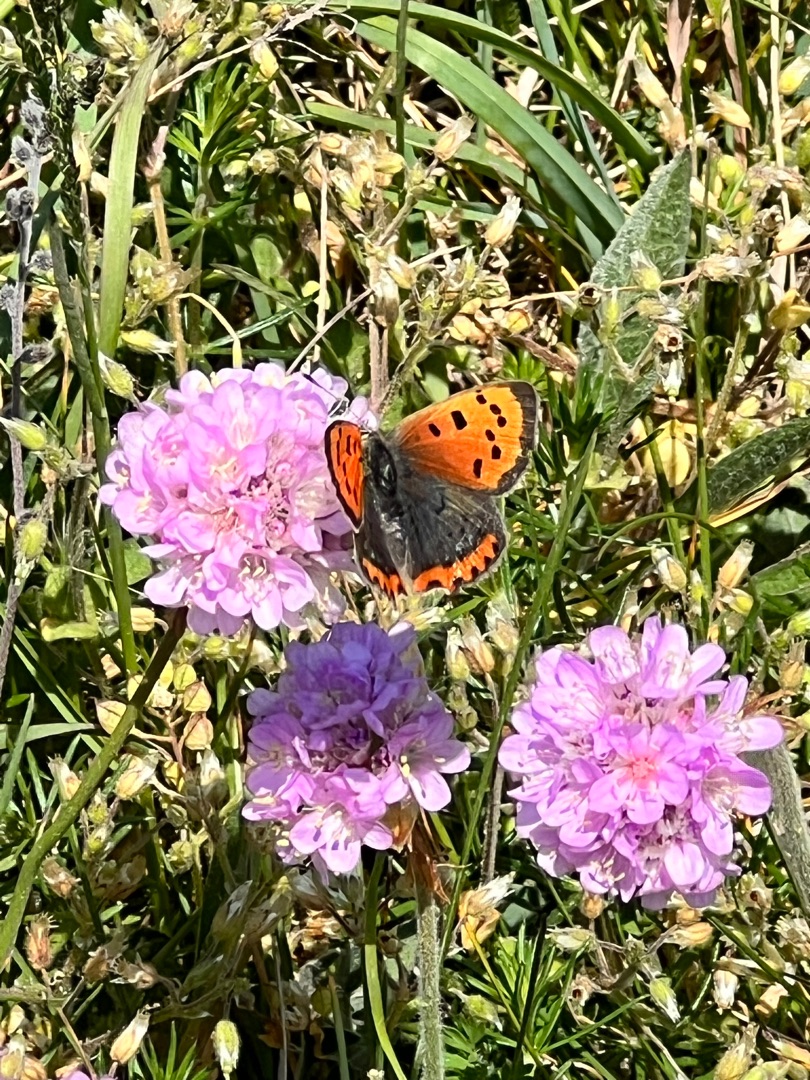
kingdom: Animalia
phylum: Arthropoda
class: Insecta
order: Lepidoptera
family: Lycaenidae
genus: Lycaena
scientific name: Lycaena phlaeas
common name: Lille ildfugl
